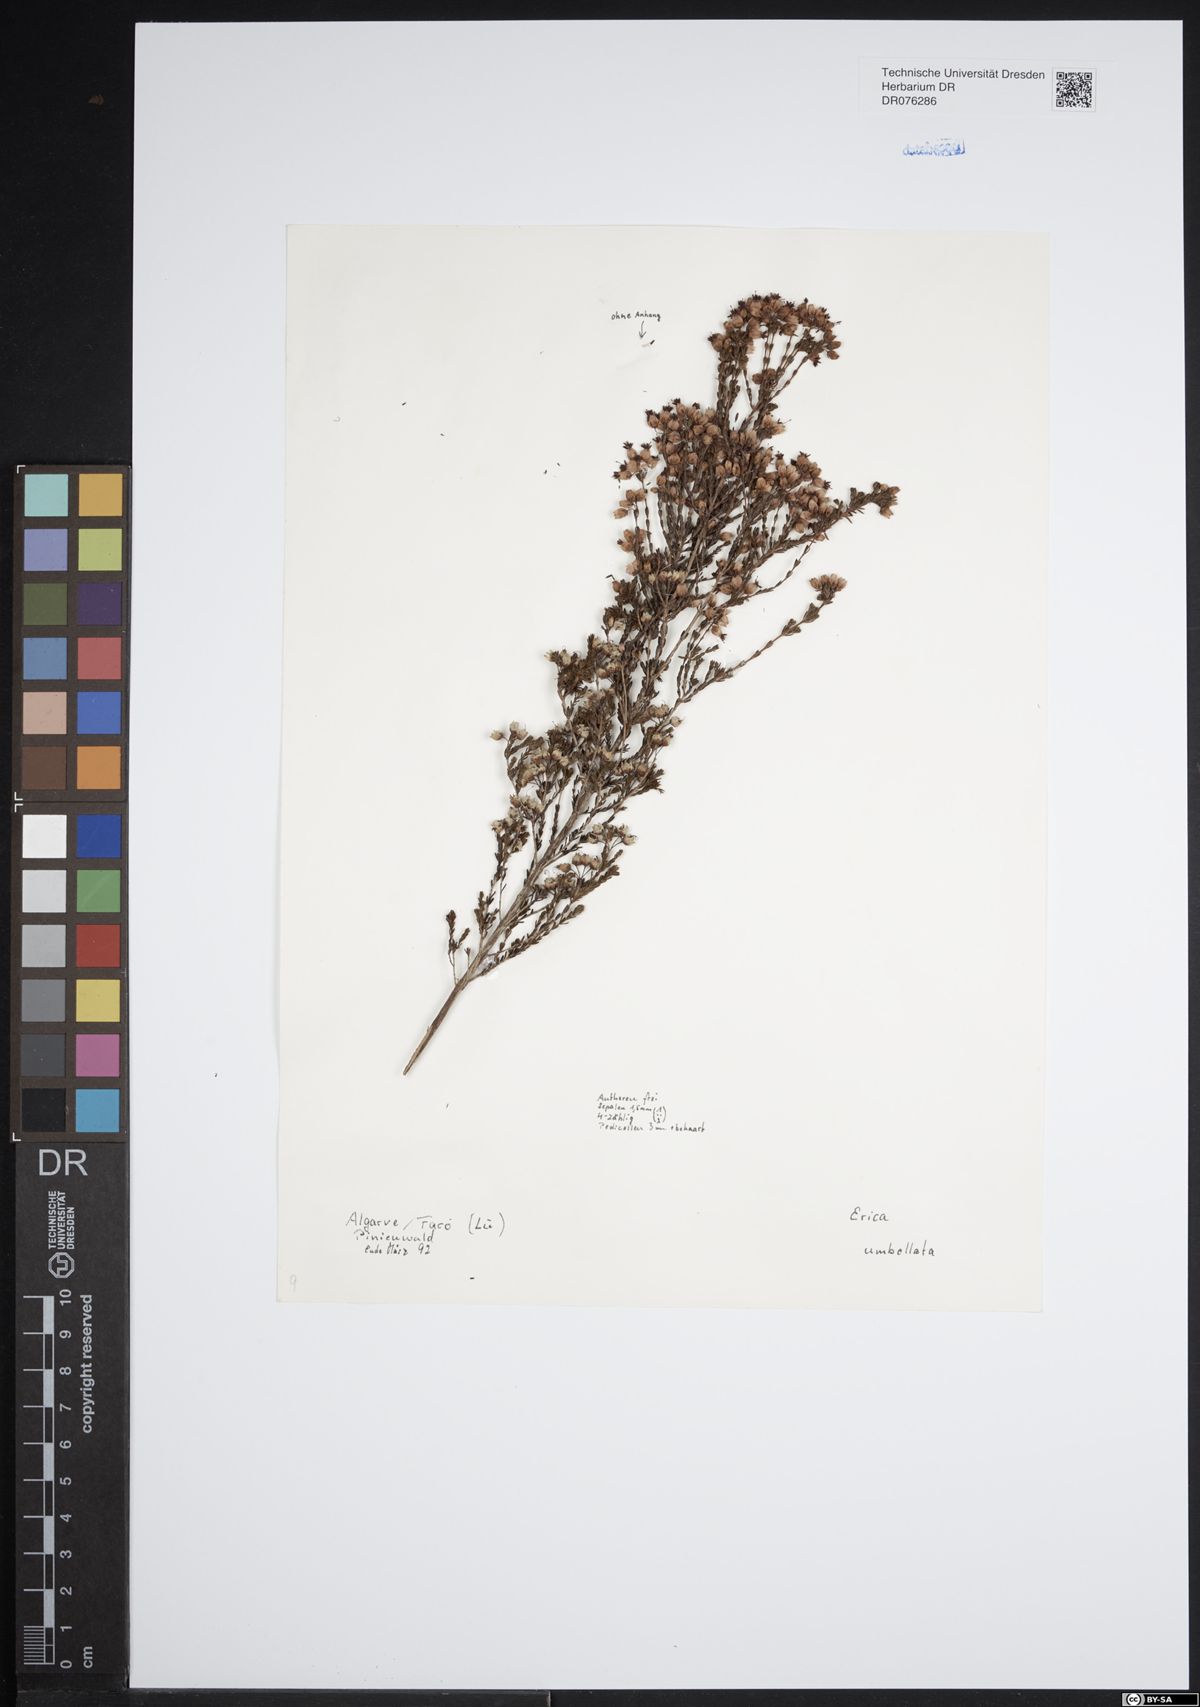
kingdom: Plantae
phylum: Tracheophyta
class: Magnoliopsida
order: Ericales
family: Ericaceae
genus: Erica
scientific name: Erica umbellata
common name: Dwarf spanish heath
